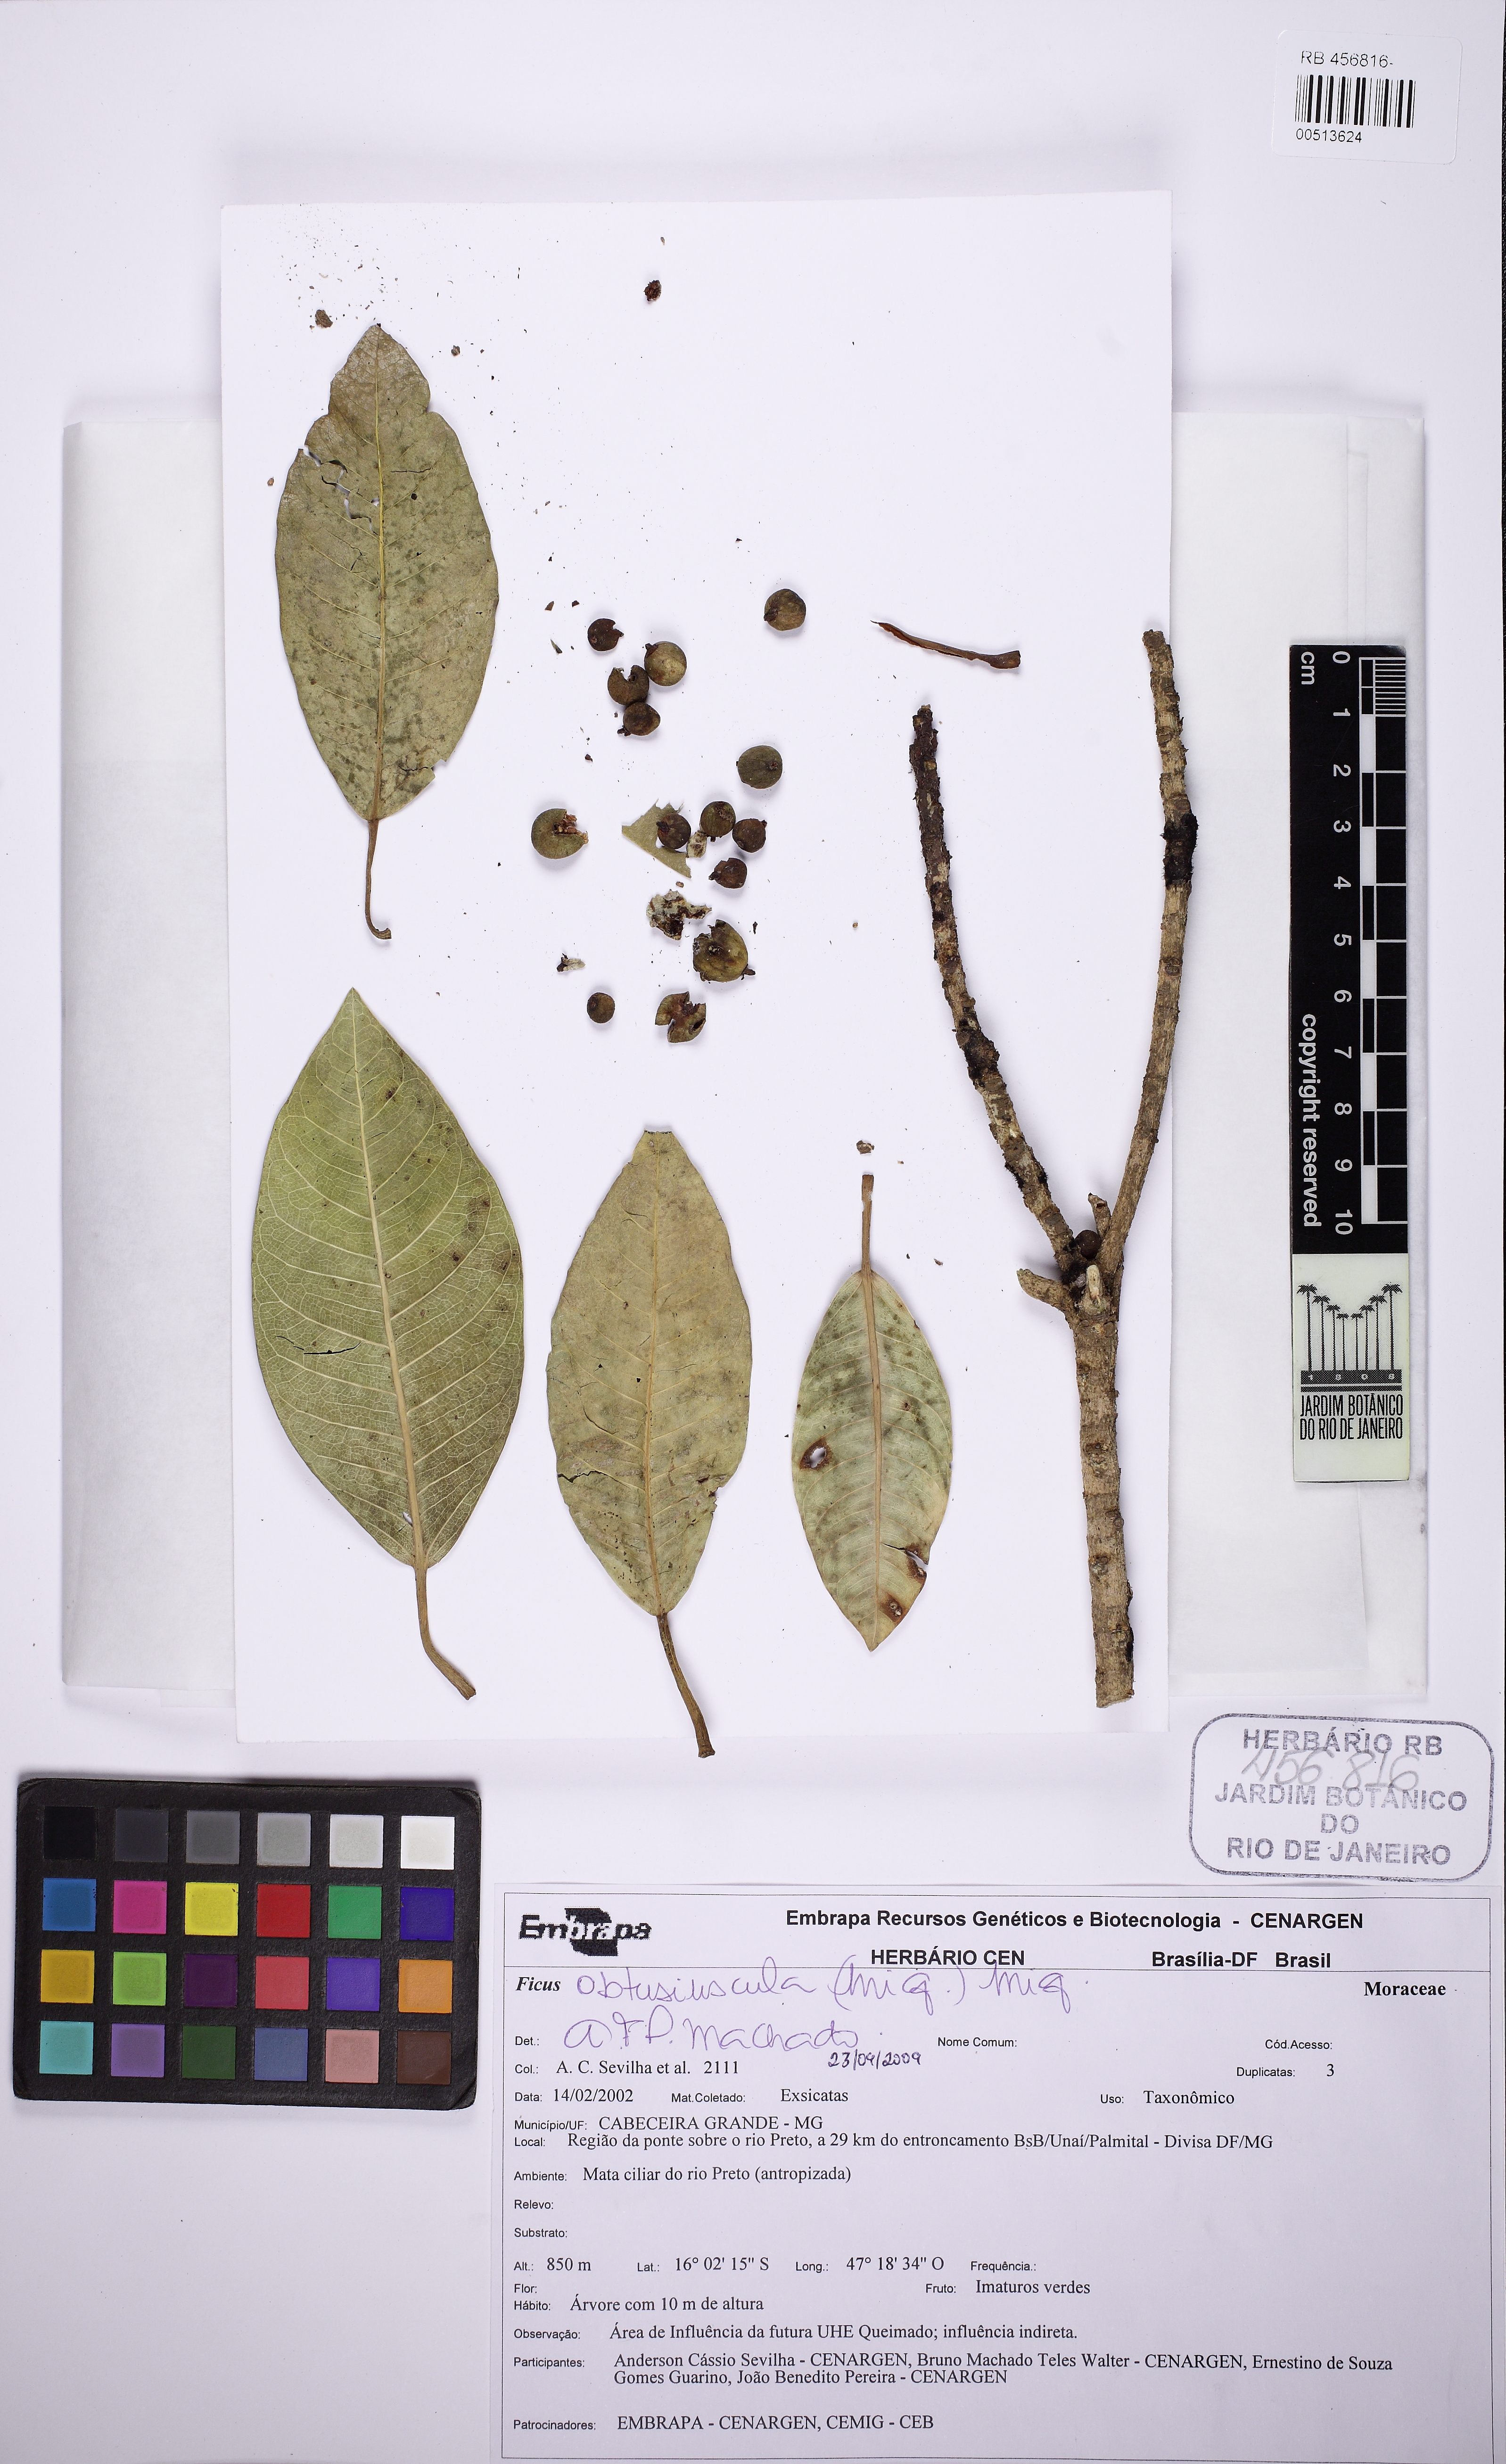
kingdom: Plantae
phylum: Tracheophyta
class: Magnoliopsida
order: Rosales
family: Moraceae
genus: Ficus
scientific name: Ficus obtusiuscula
